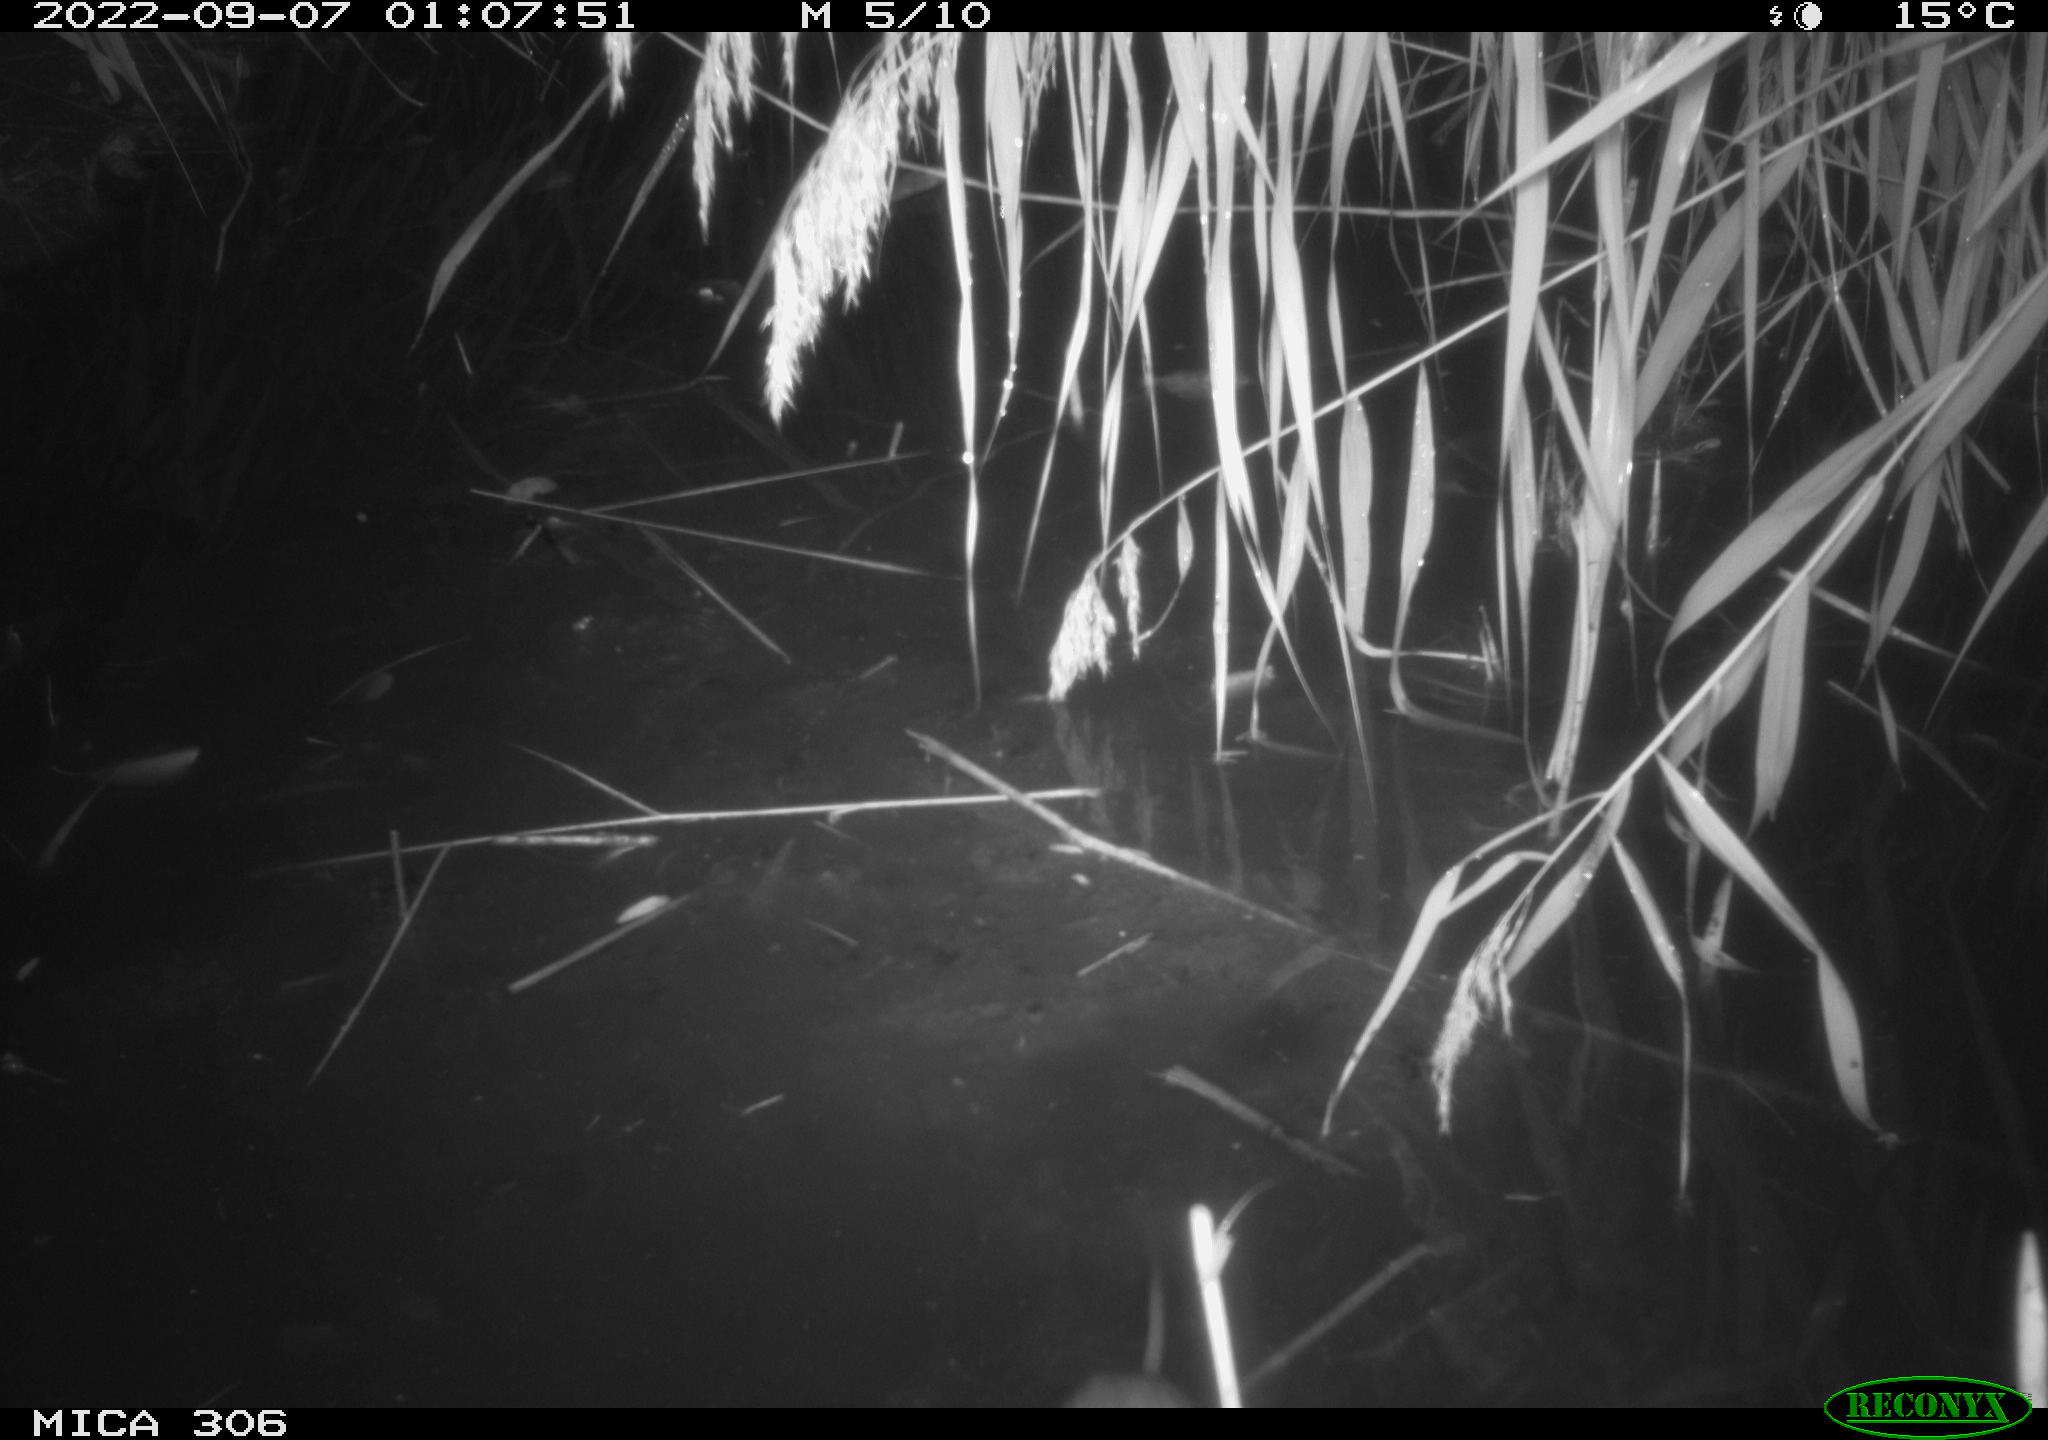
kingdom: Animalia
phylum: Chordata
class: Mammalia
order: Rodentia
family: Muridae
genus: Rattus
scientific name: Rattus norvegicus
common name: Brown rat
